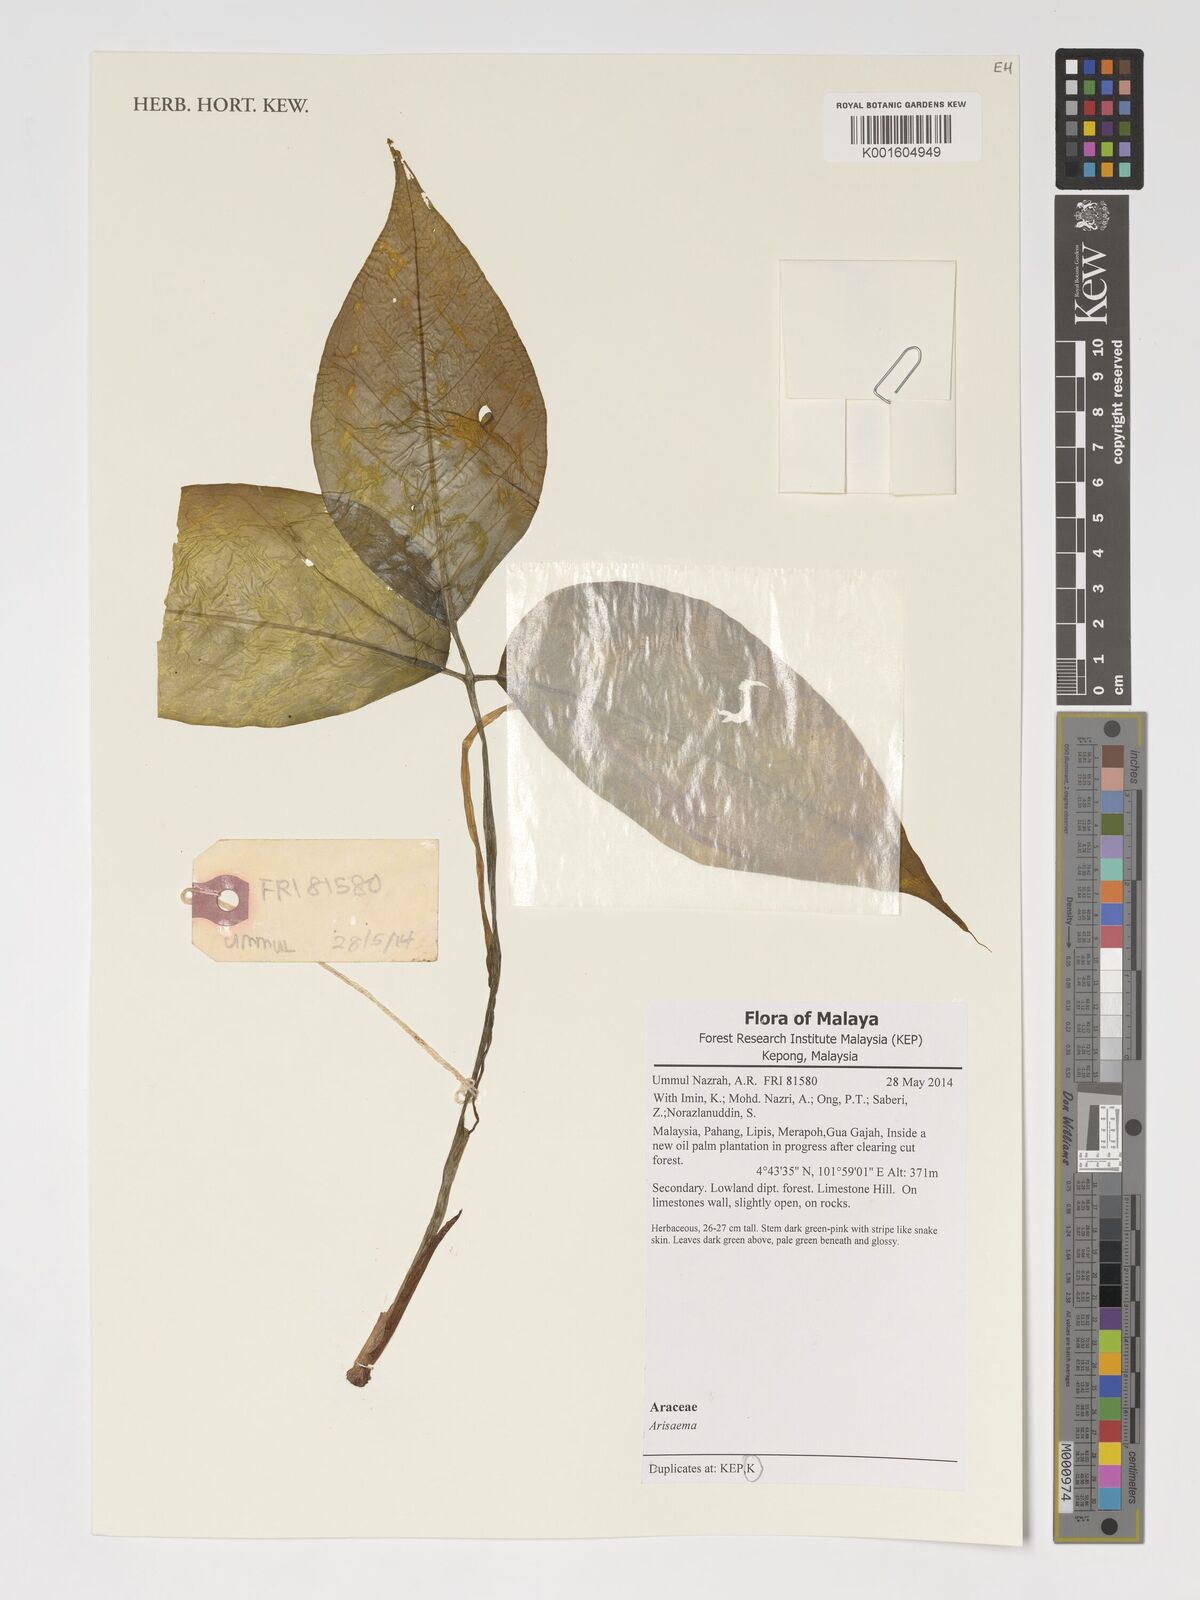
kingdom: Plantae
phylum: Tracheophyta
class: Liliopsida
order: Alismatales
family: Araceae
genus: Arisaema
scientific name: Arisaema
